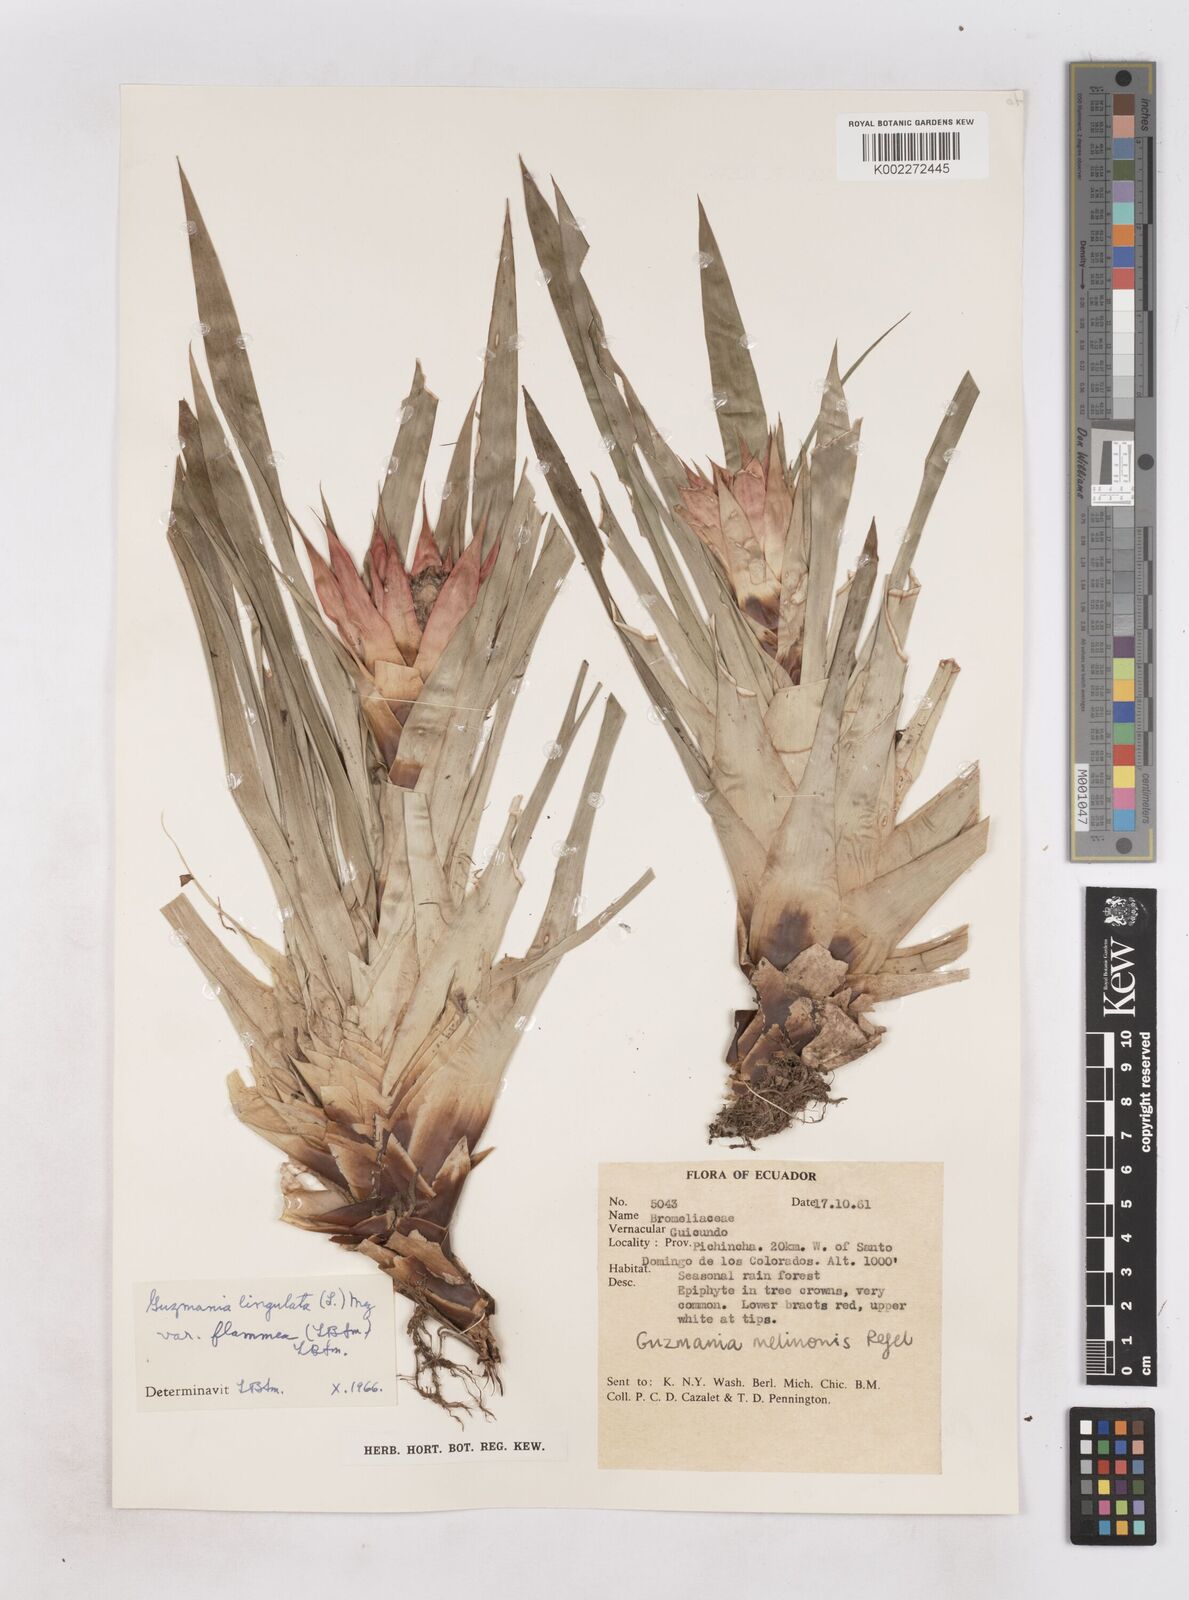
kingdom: Plantae
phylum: Tracheophyta
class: Liliopsida
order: Poales
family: Bromeliaceae
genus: Guzmania
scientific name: Guzmania lingulata
